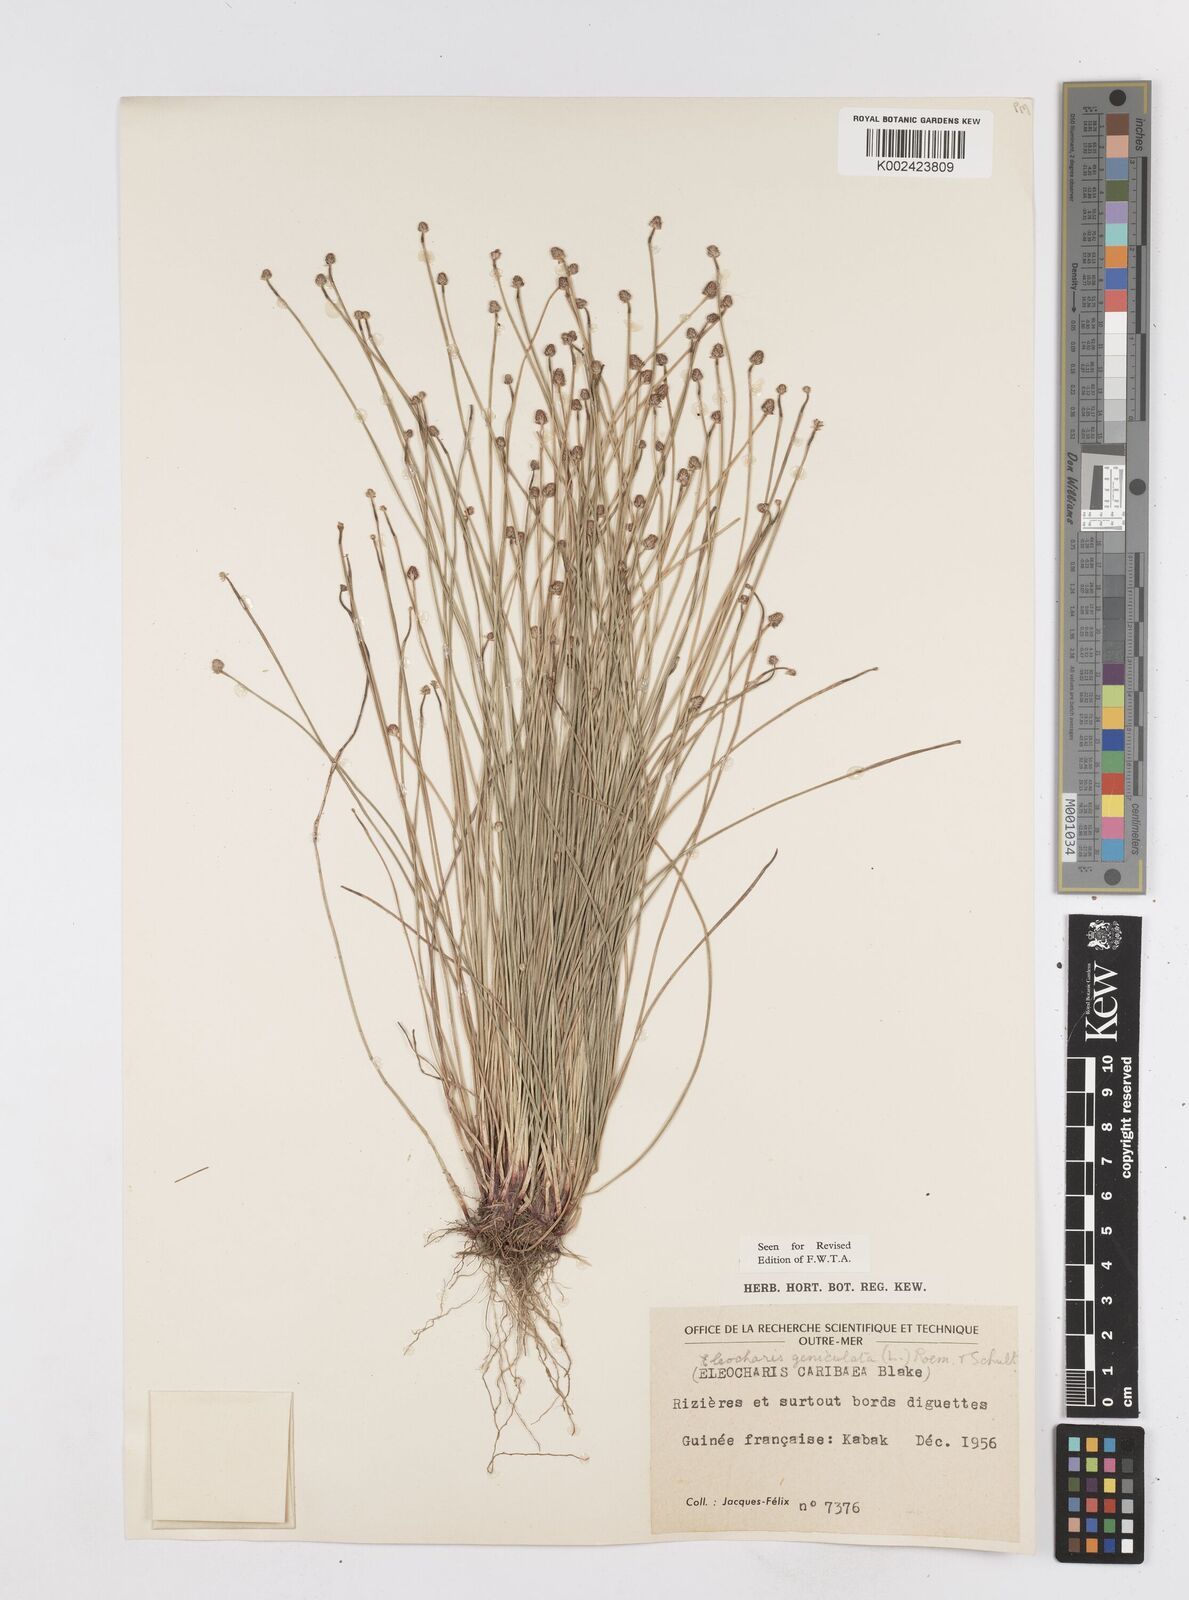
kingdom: Plantae
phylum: Tracheophyta
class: Liliopsida
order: Poales
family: Cyperaceae
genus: Eleocharis
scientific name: Eleocharis geniculata
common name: Canada spikesedge
